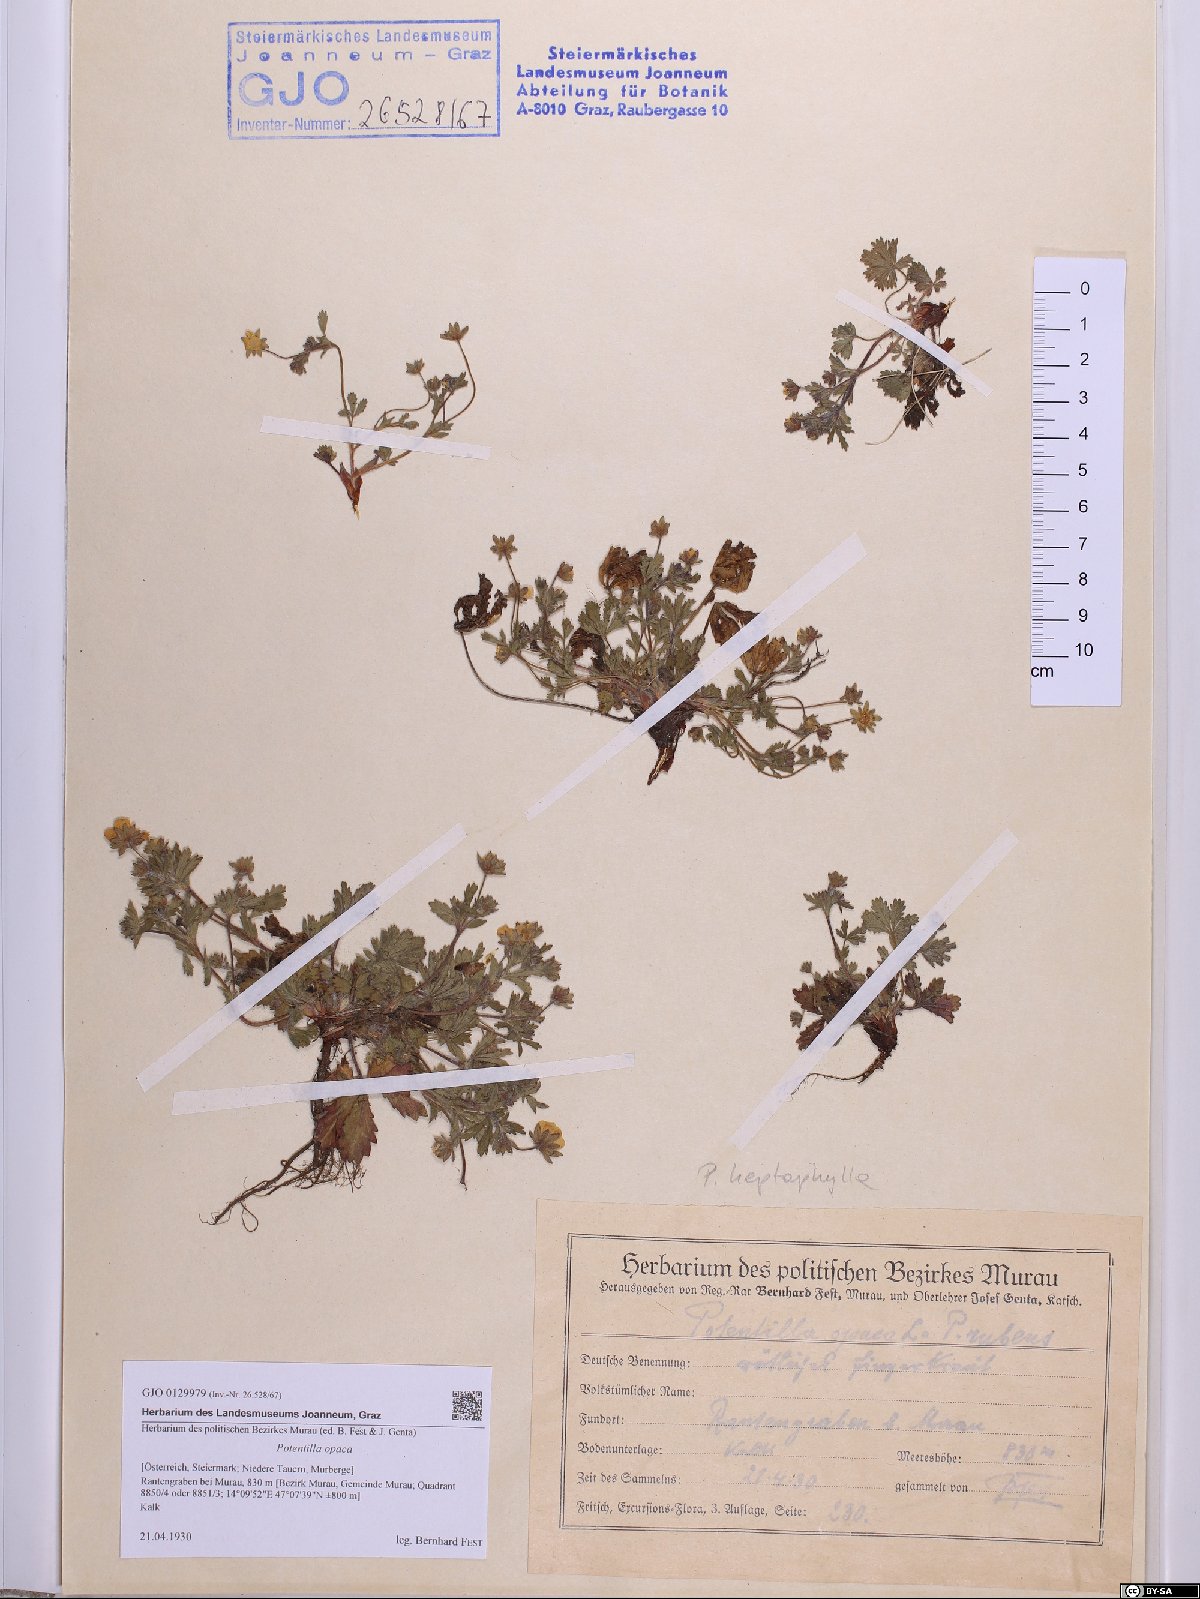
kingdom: Plantae
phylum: Tracheophyta
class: Magnoliopsida
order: Rosales
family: Rosaceae
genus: Potentilla
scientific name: Potentilla
